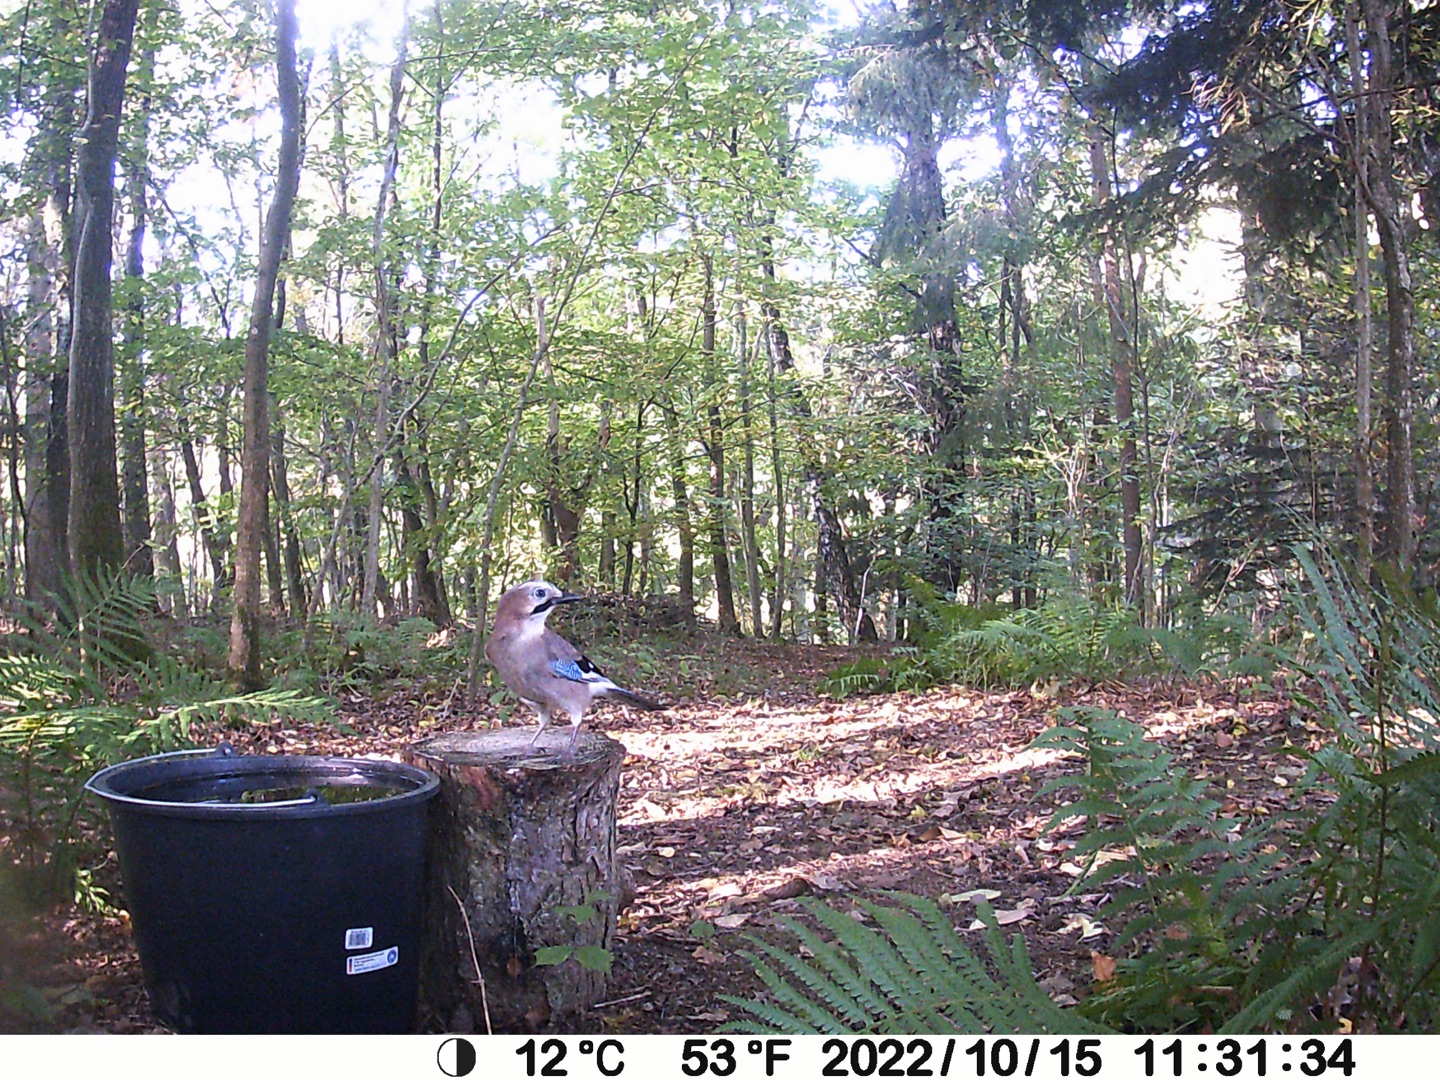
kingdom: Animalia
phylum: Chordata
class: Aves
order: Passeriformes
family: Corvidae
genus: Garrulus
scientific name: Garrulus glandarius
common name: Skovskade
